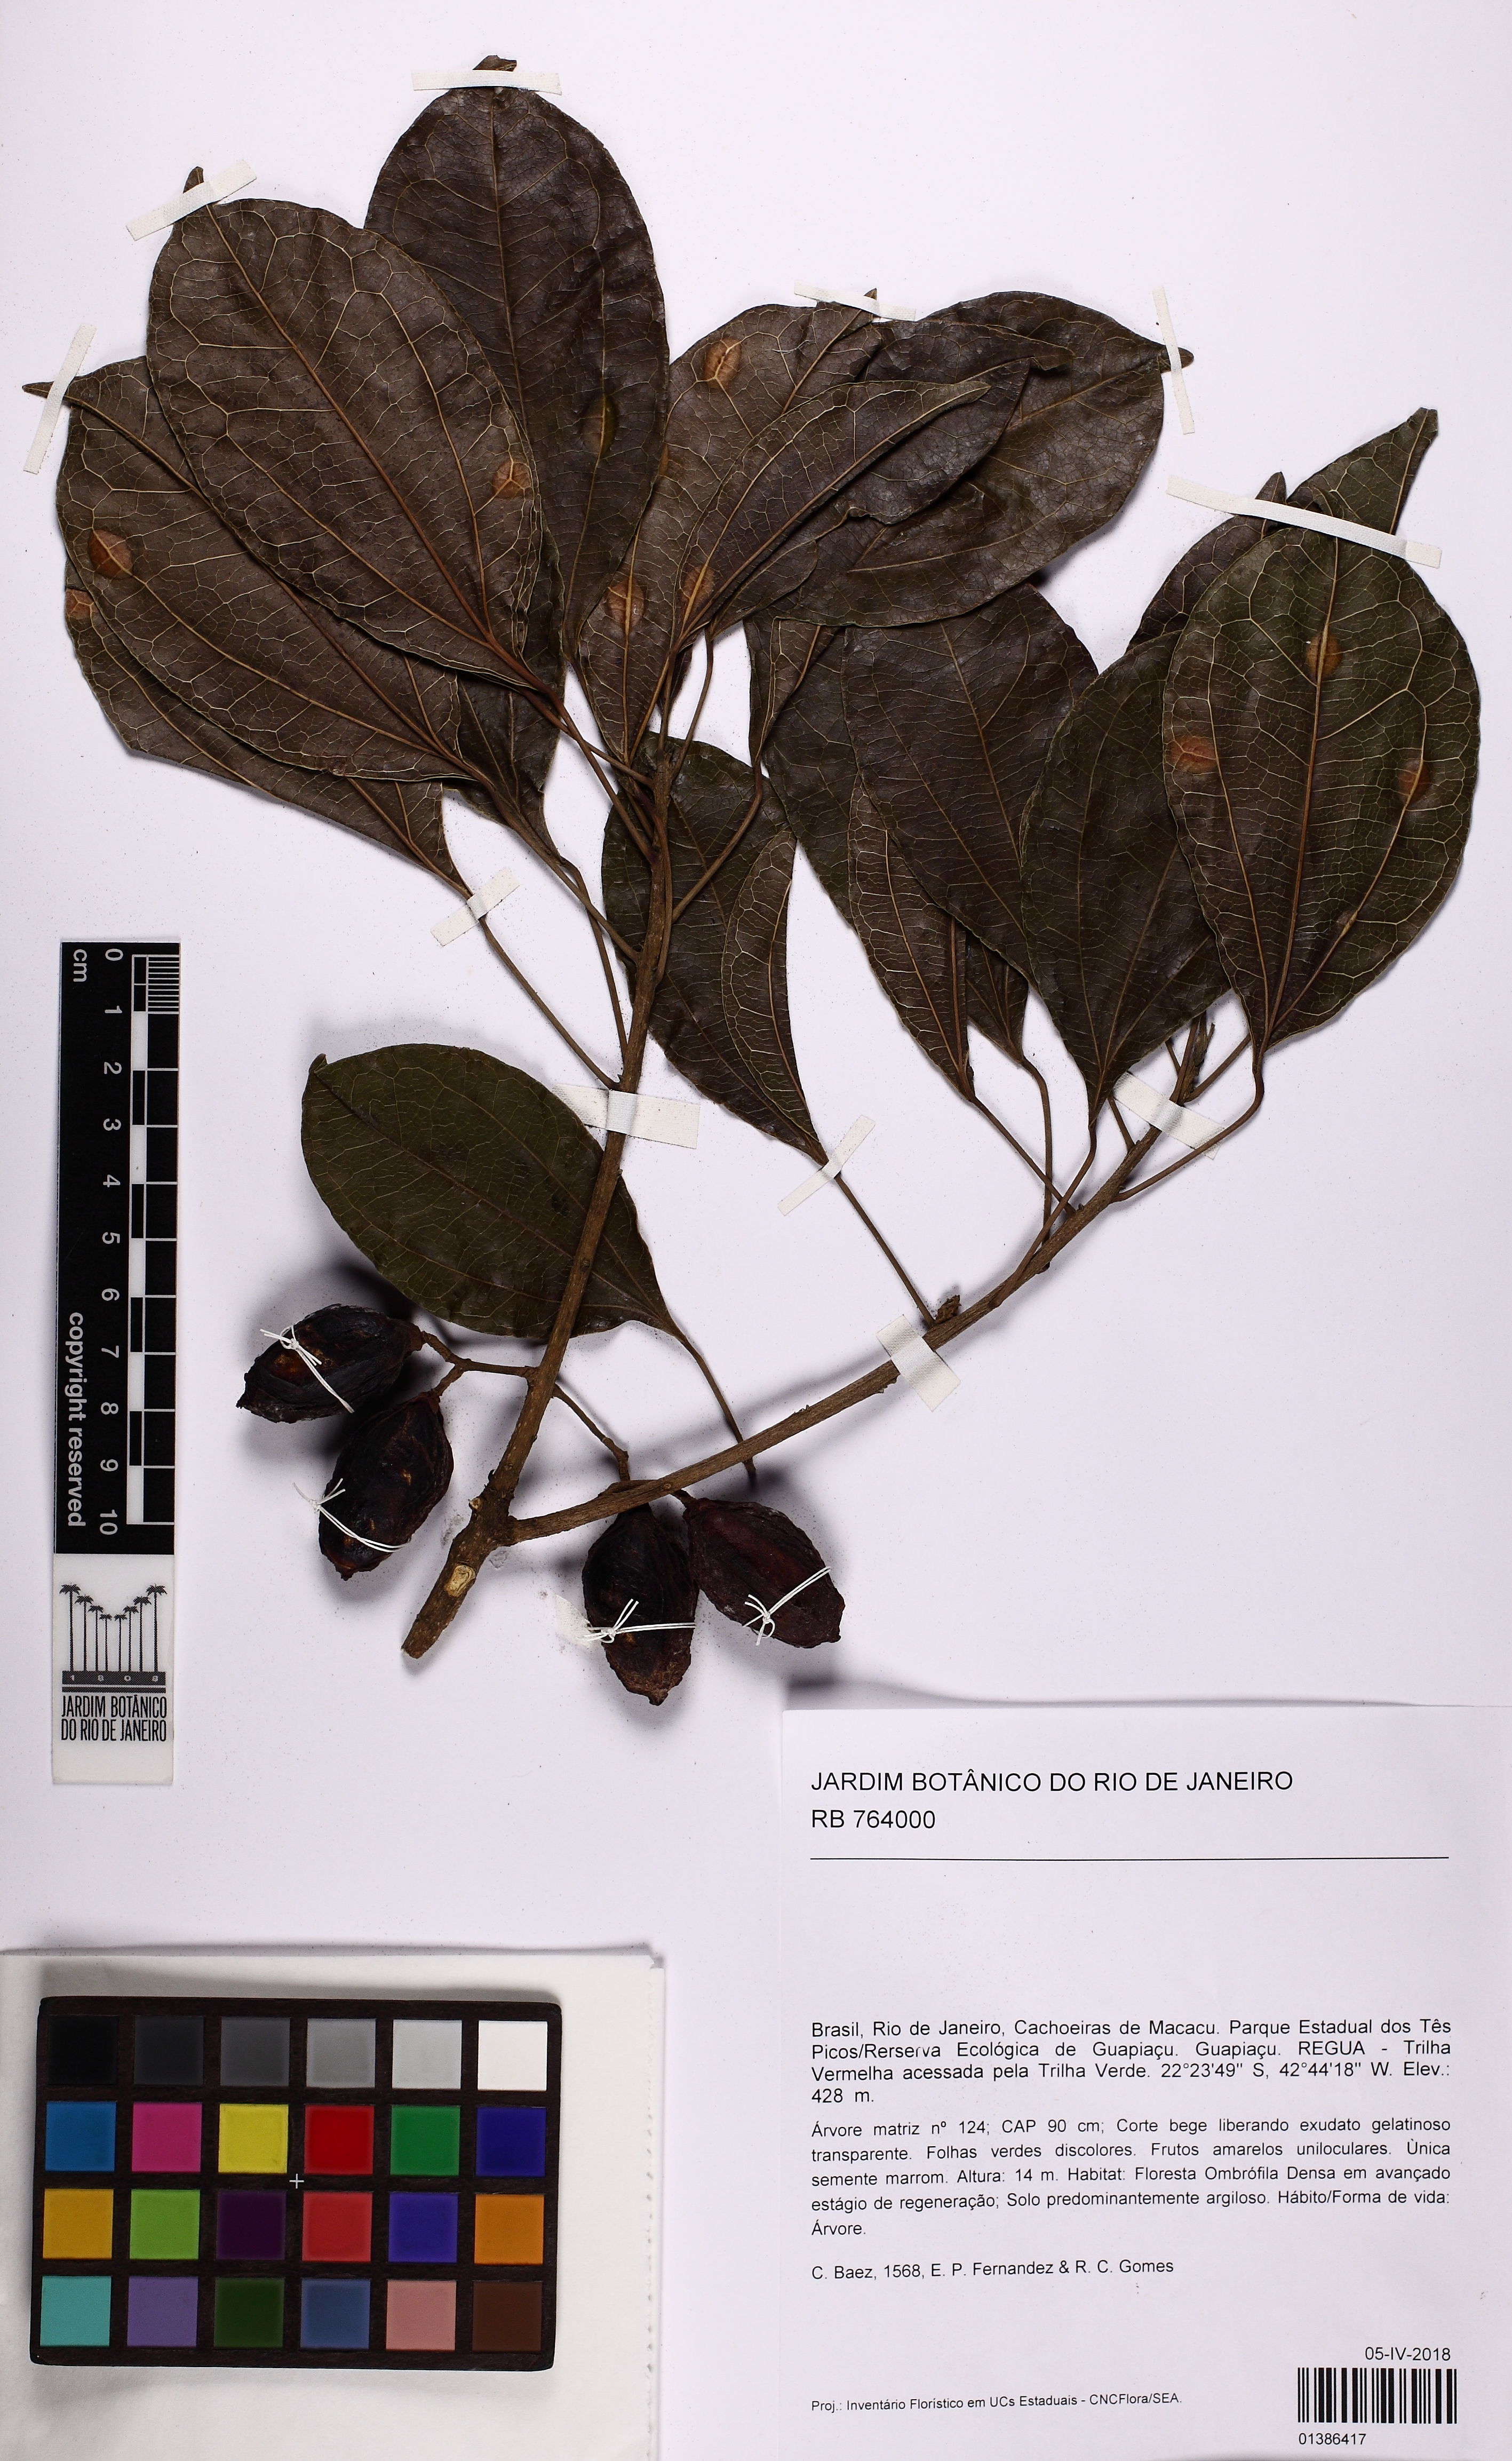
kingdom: Plantae
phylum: Tracheophyta
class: Magnoliopsida
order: Malpighiales
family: Euphorbiaceae
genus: Glycydendron
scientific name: Glycydendron
